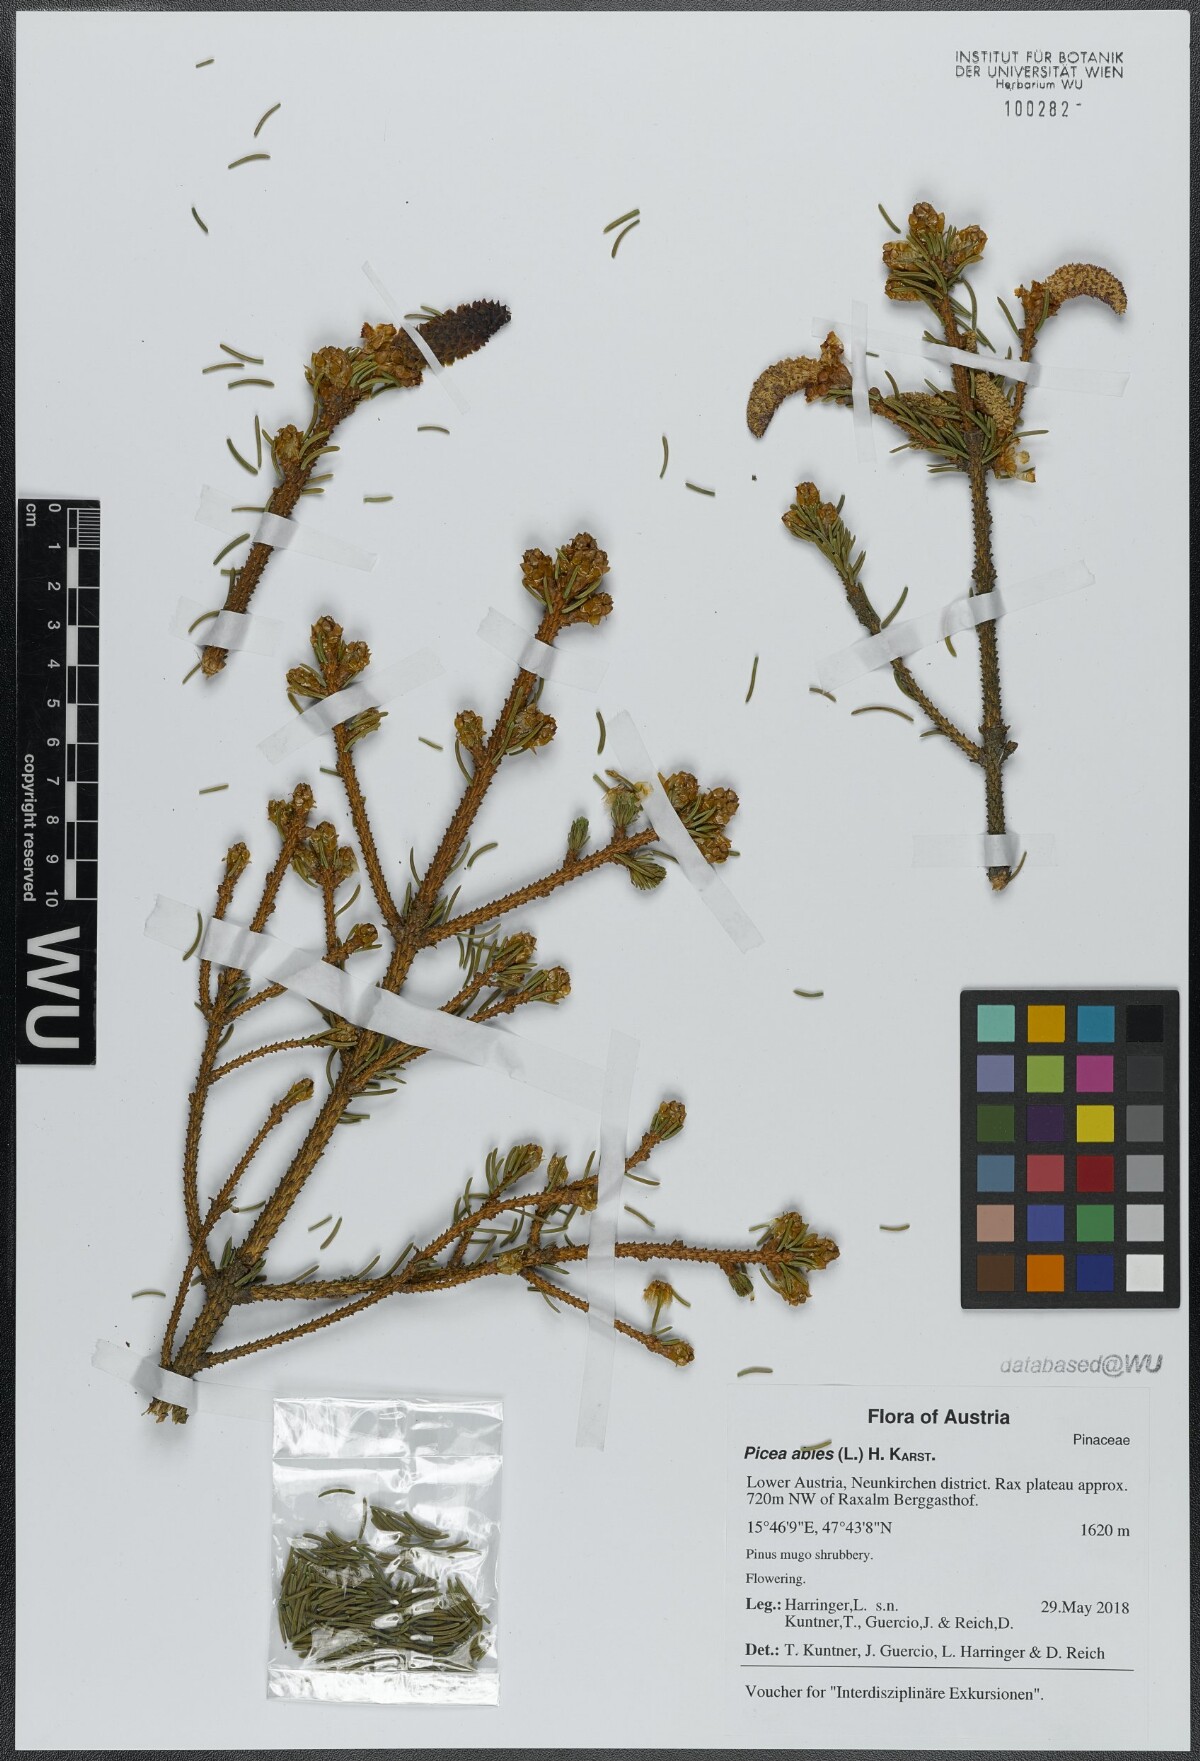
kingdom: Plantae
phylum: Tracheophyta
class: Pinopsida
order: Pinales
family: Pinaceae
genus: Picea
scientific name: Picea abies
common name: Norway spruce
